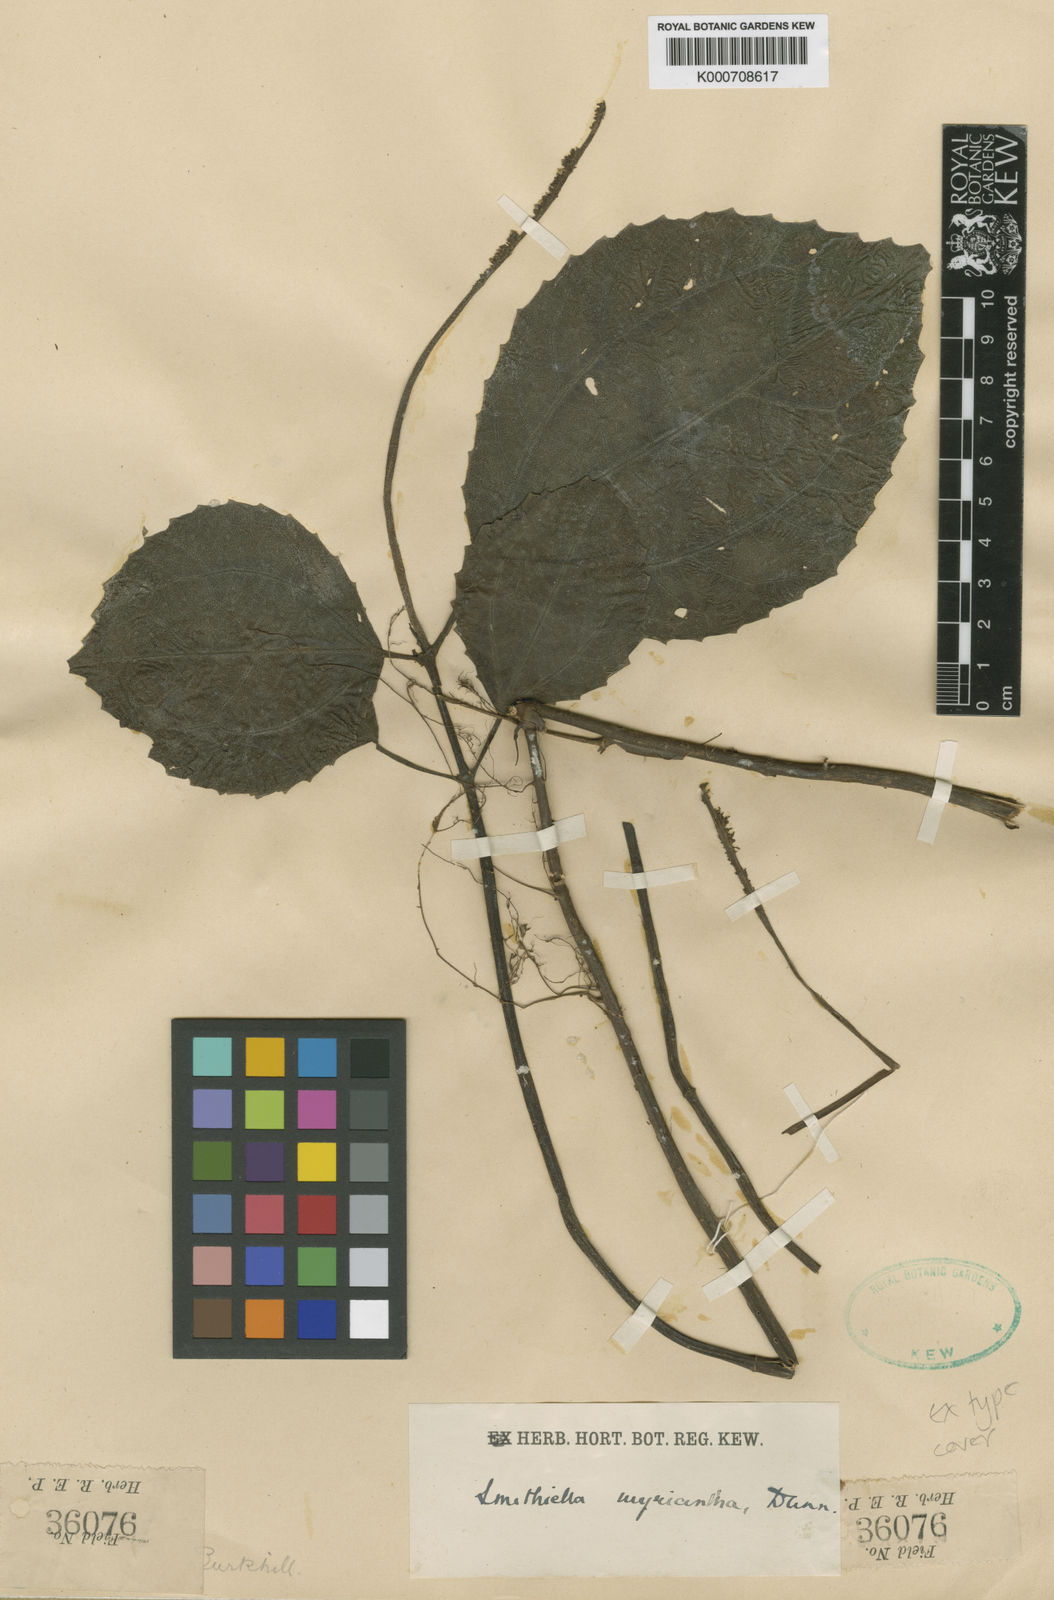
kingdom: Plantae
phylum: Tracheophyta
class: Magnoliopsida
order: Rosales
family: Urticaceae
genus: Pilea
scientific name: Pilea myriantha
